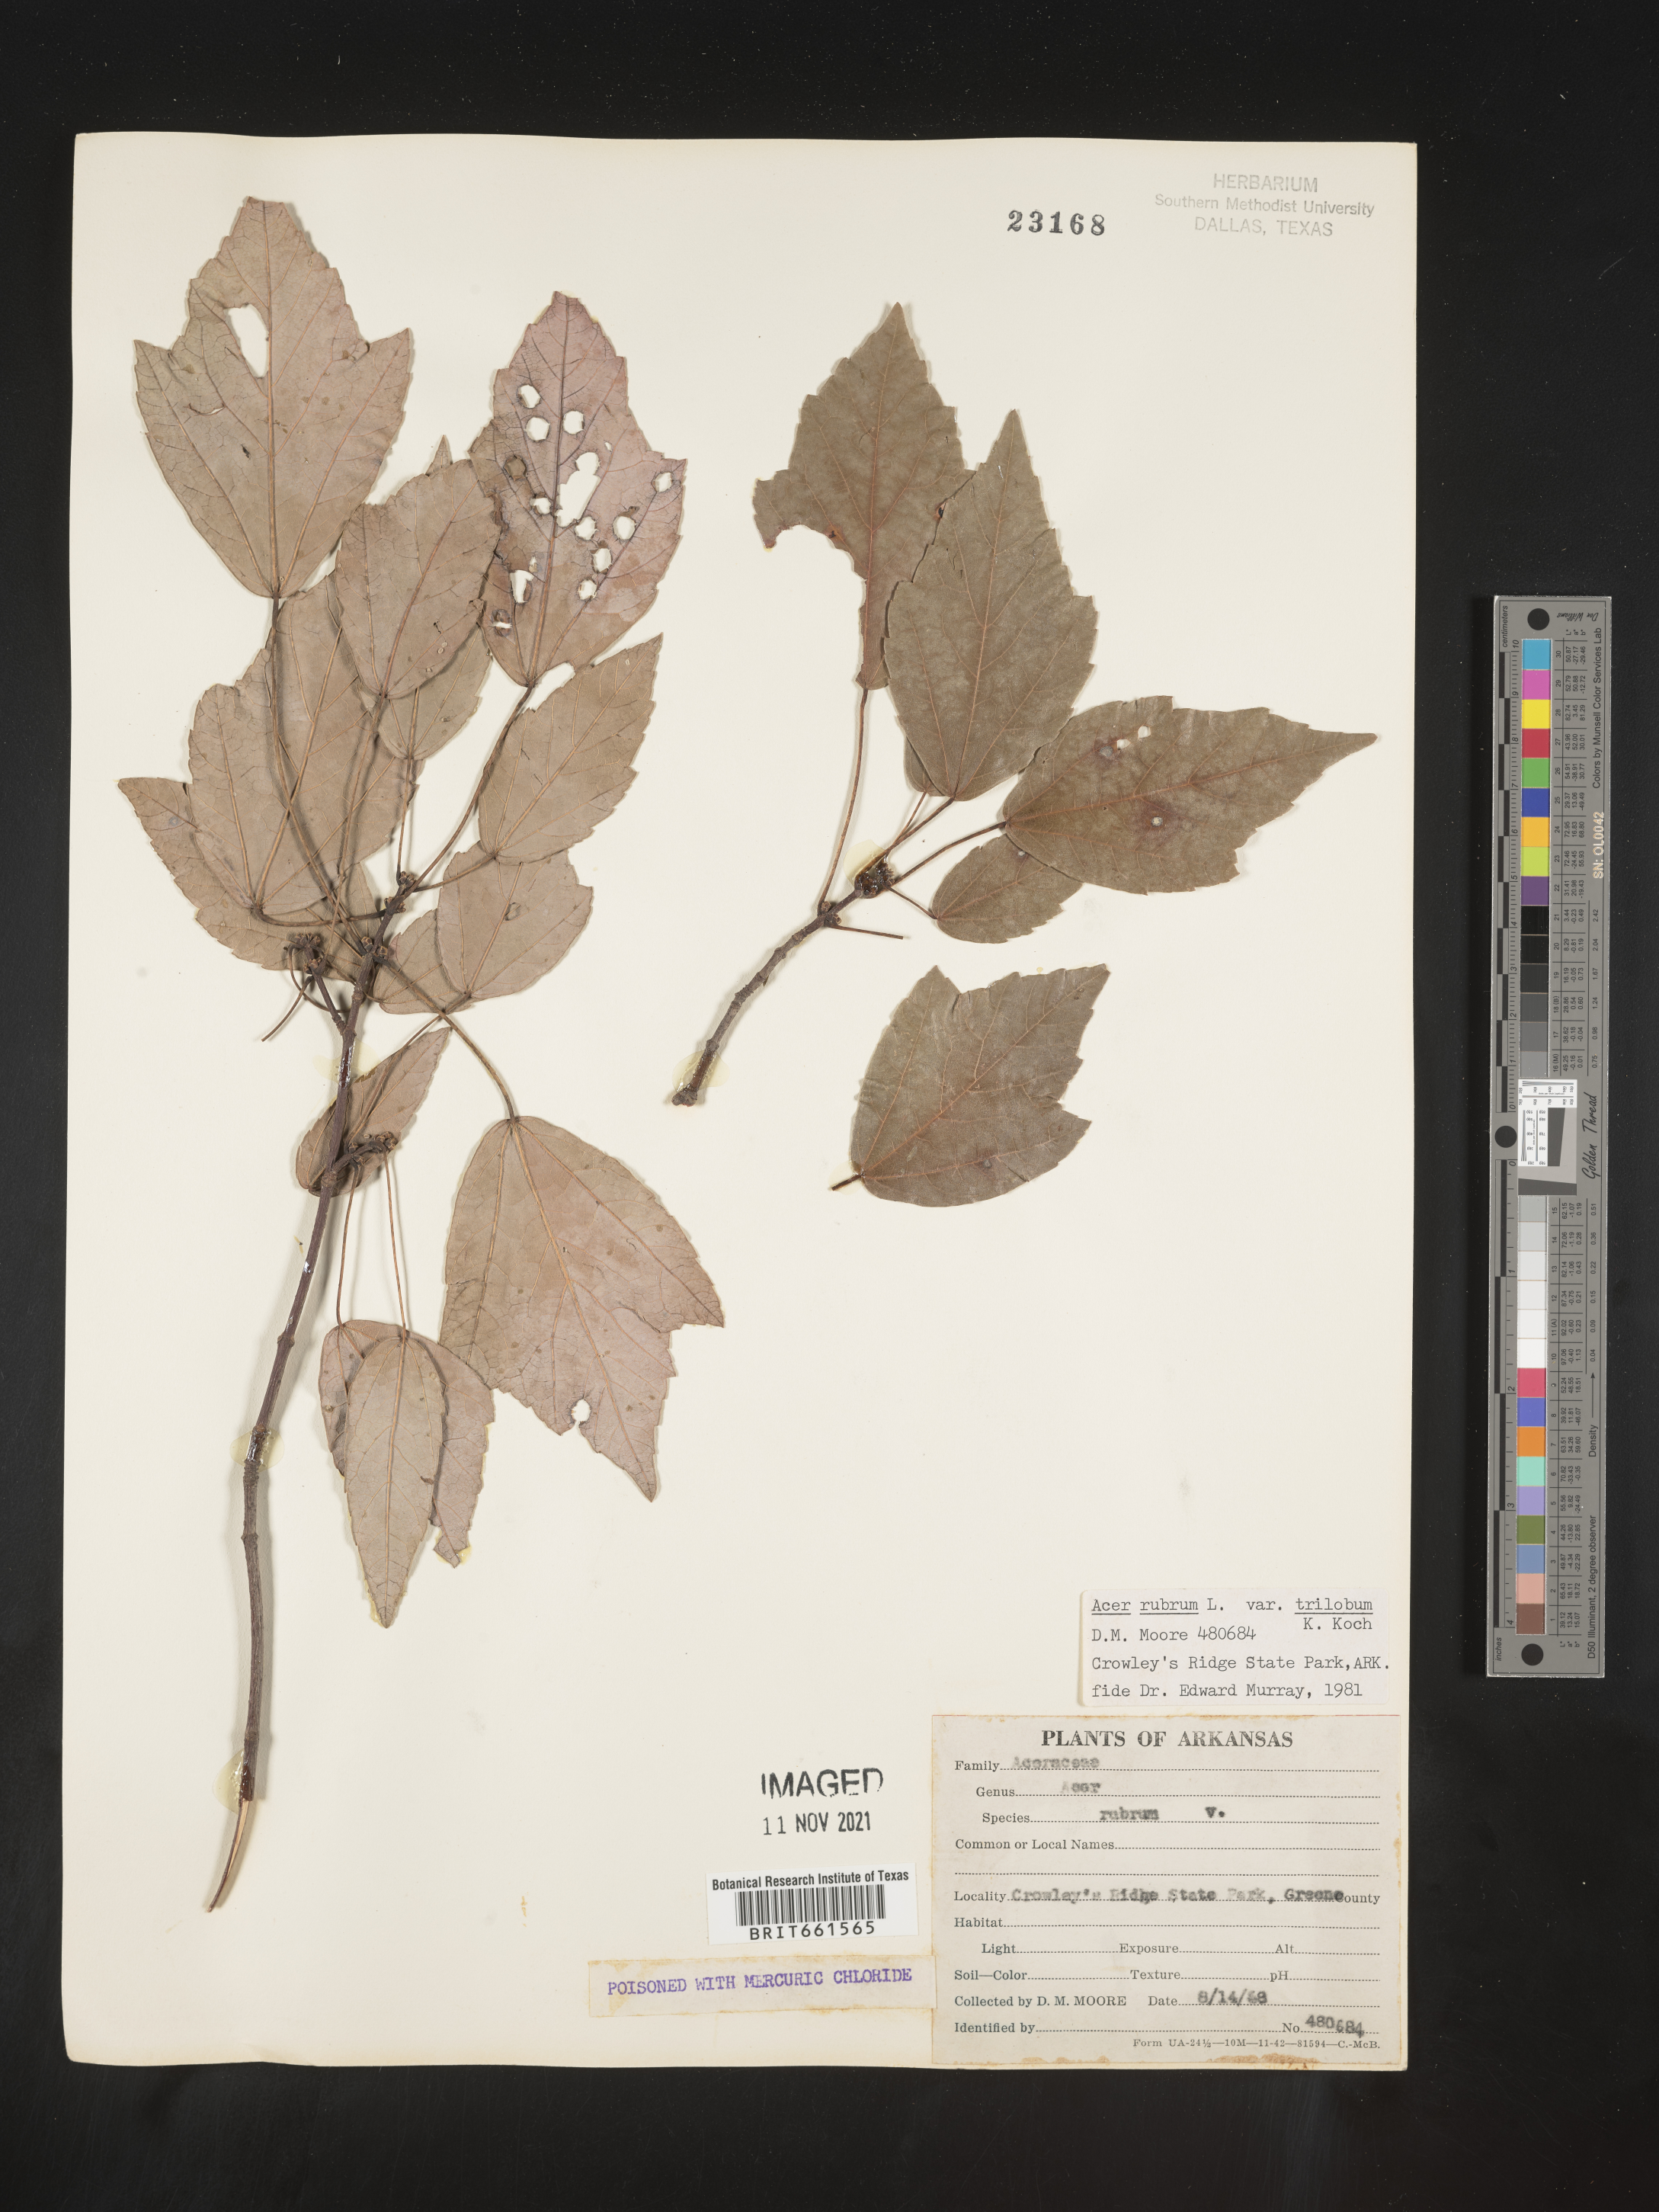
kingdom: Plantae
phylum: Tracheophyta
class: Magnoliopsida
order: Sapindales
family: Sapindaceae
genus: Acer
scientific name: Acer rubrum
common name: Red maple
